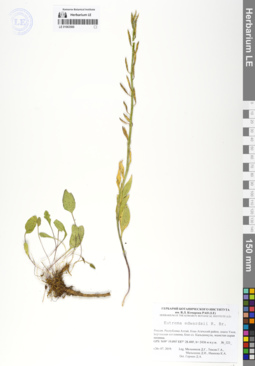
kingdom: Plantae
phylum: Tracheophyta
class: Magnoliopsida
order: Brassicales
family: Brassicaceae
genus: Eutrema
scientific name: Eutrema edwardsii
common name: Penland alpine fen mustard
